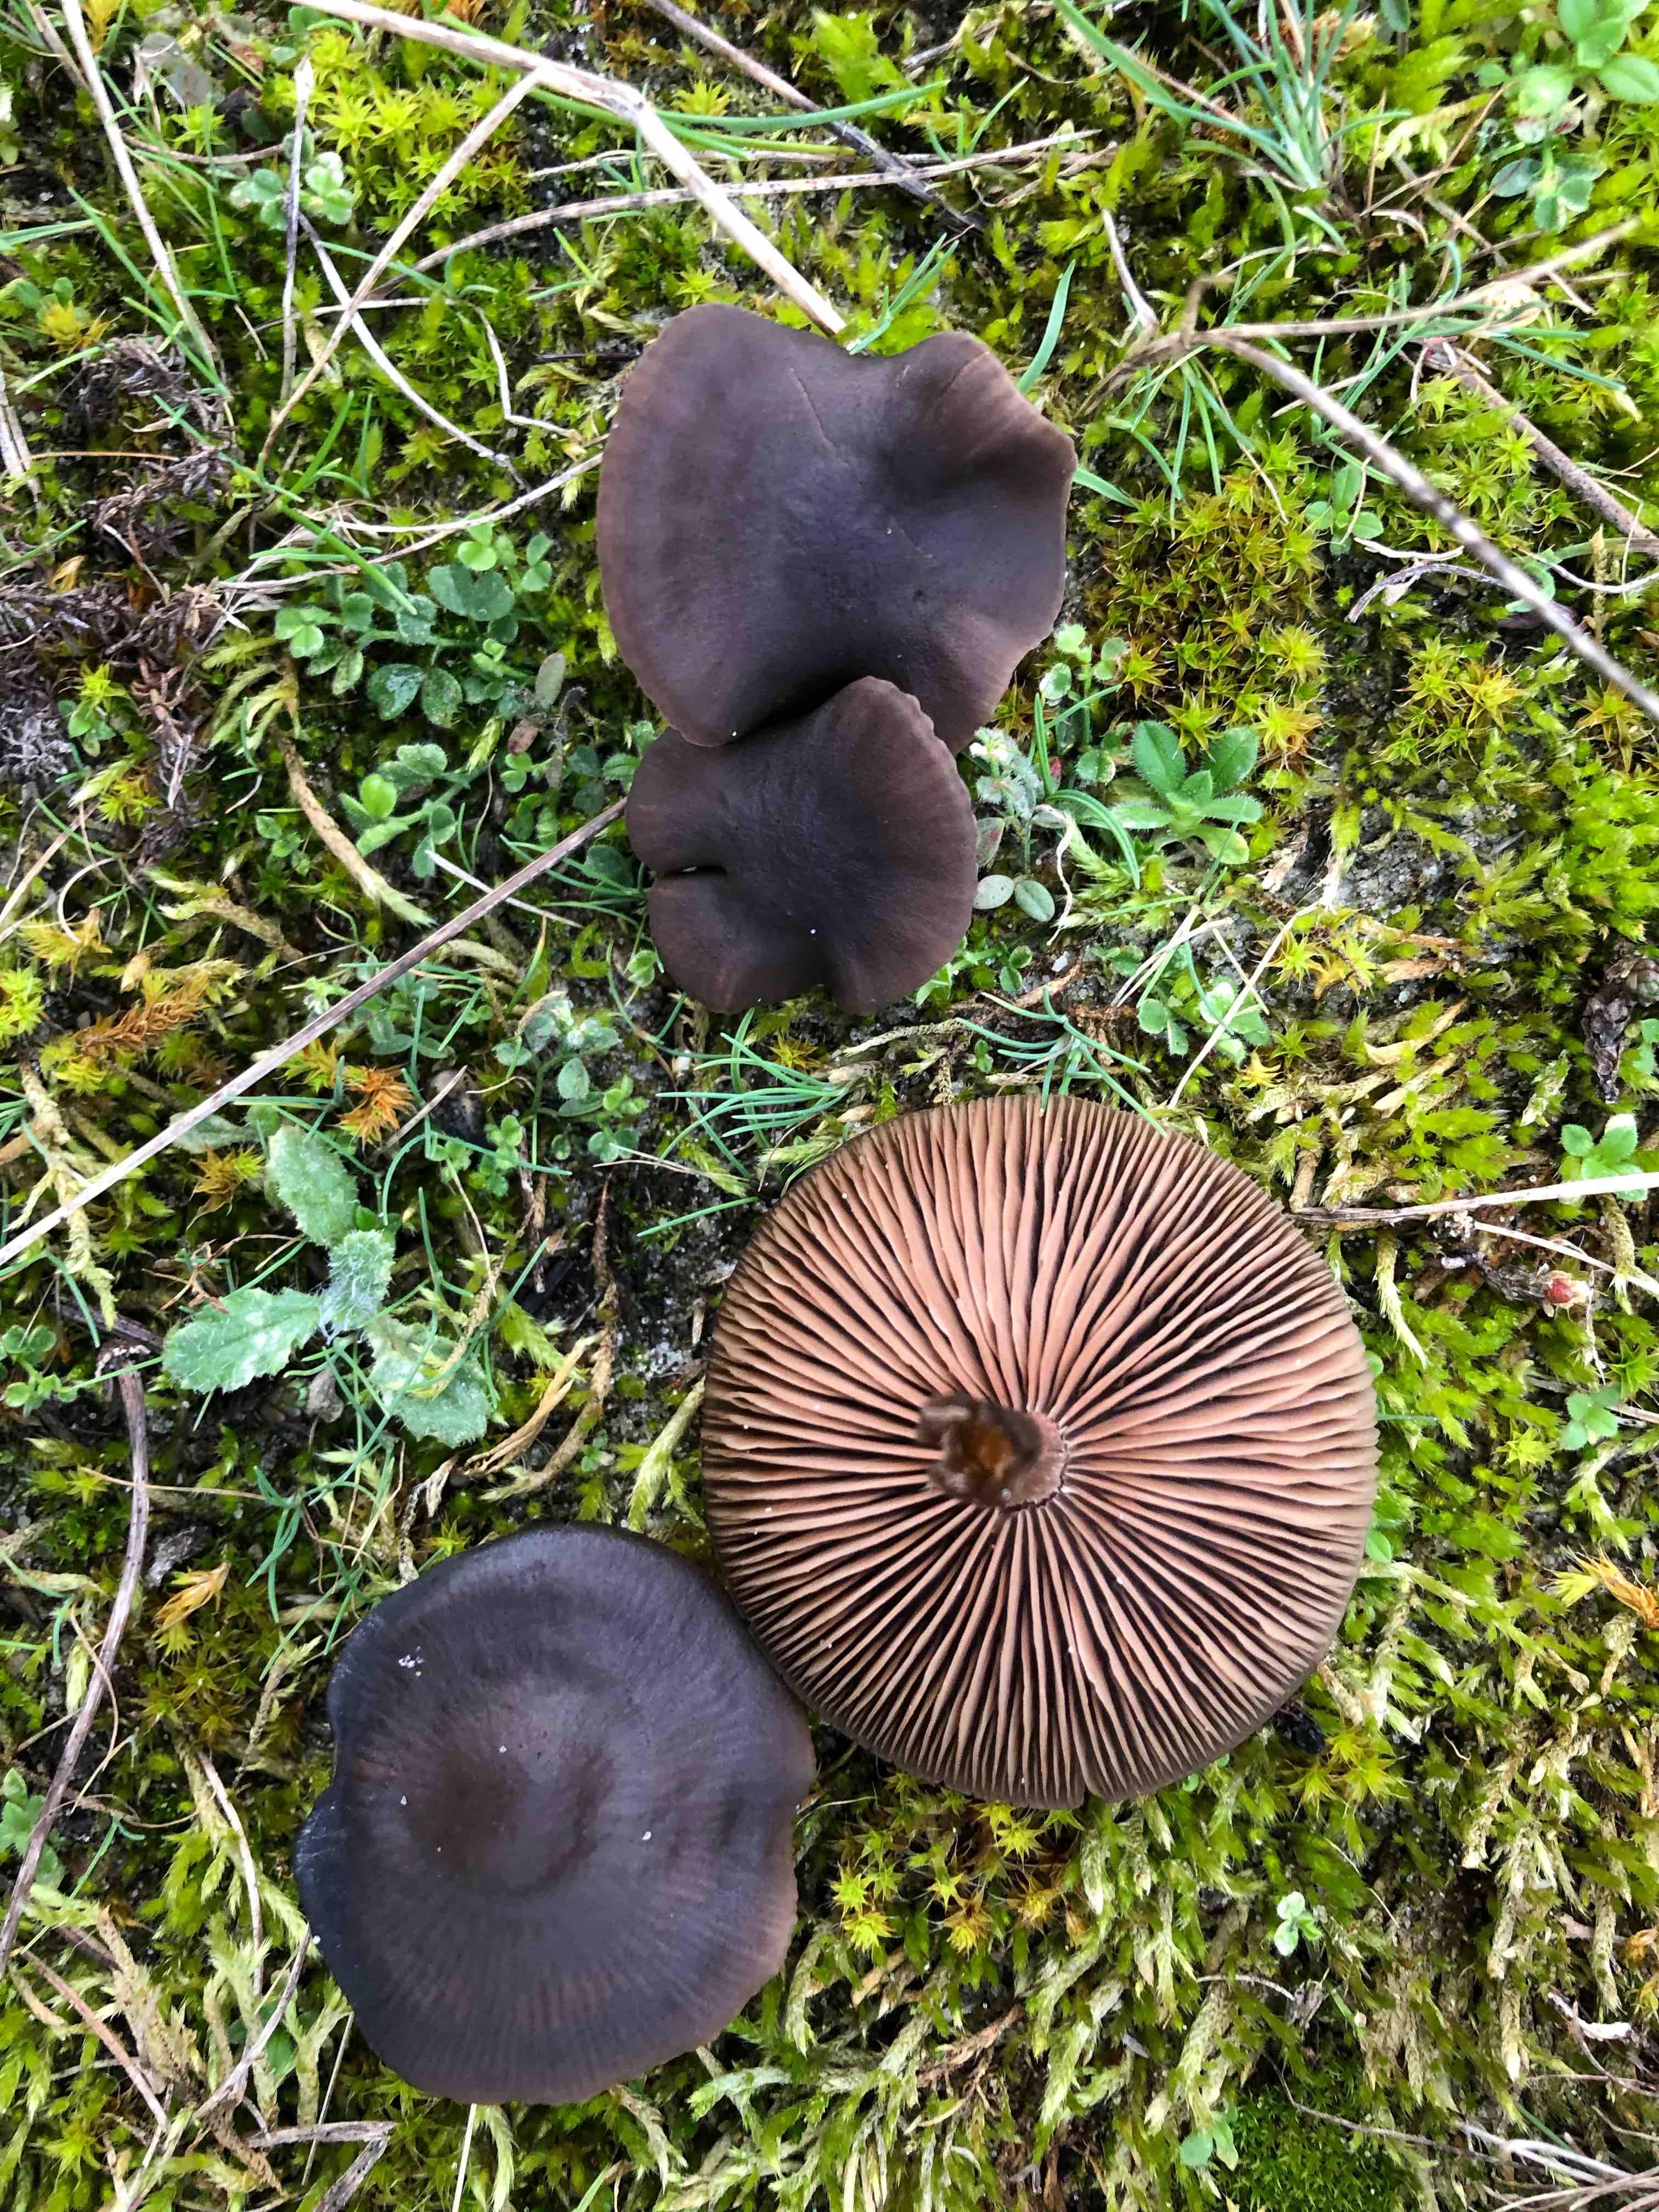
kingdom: Fungi
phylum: Basidiomycota
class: Agaricomycetes
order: Agaricales
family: Entolomataceae
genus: Entoloma
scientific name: Entoloma vindobonense
